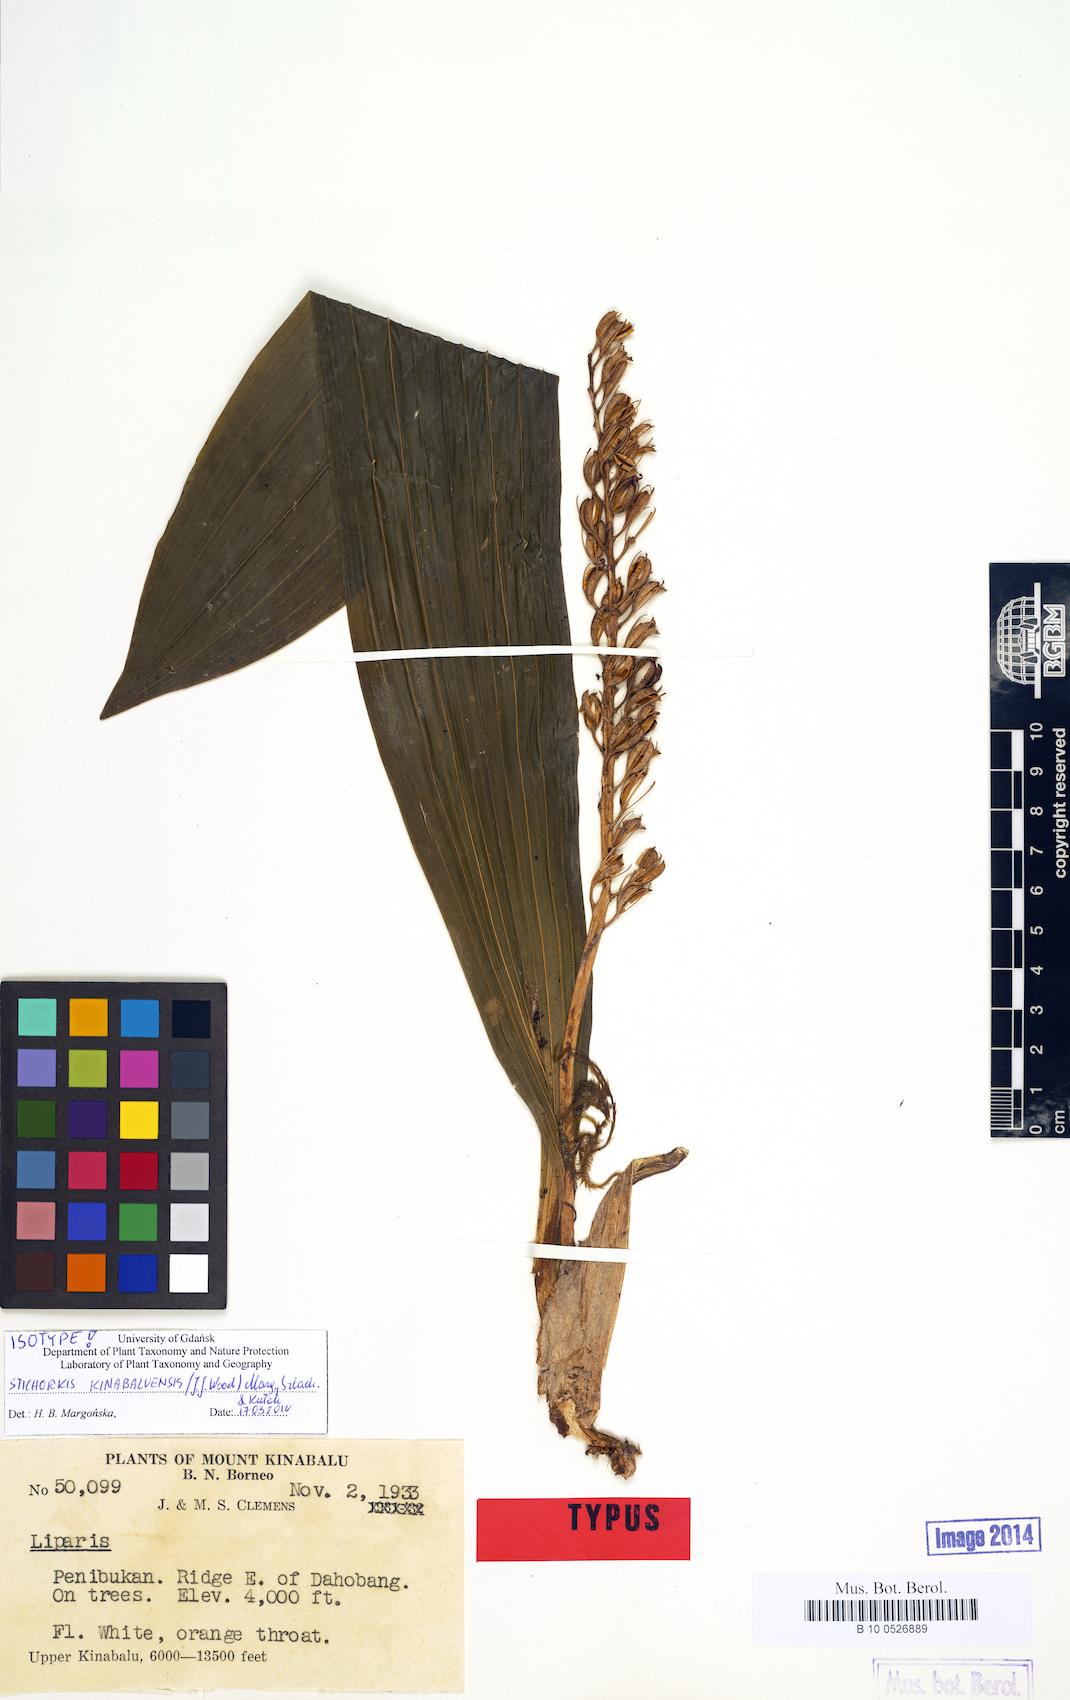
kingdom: Plantae
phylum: Tracheophyta
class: Liliopsida
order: Asparagales
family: Orchidaceae
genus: Liparis
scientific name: Liparis kinabaluensis
